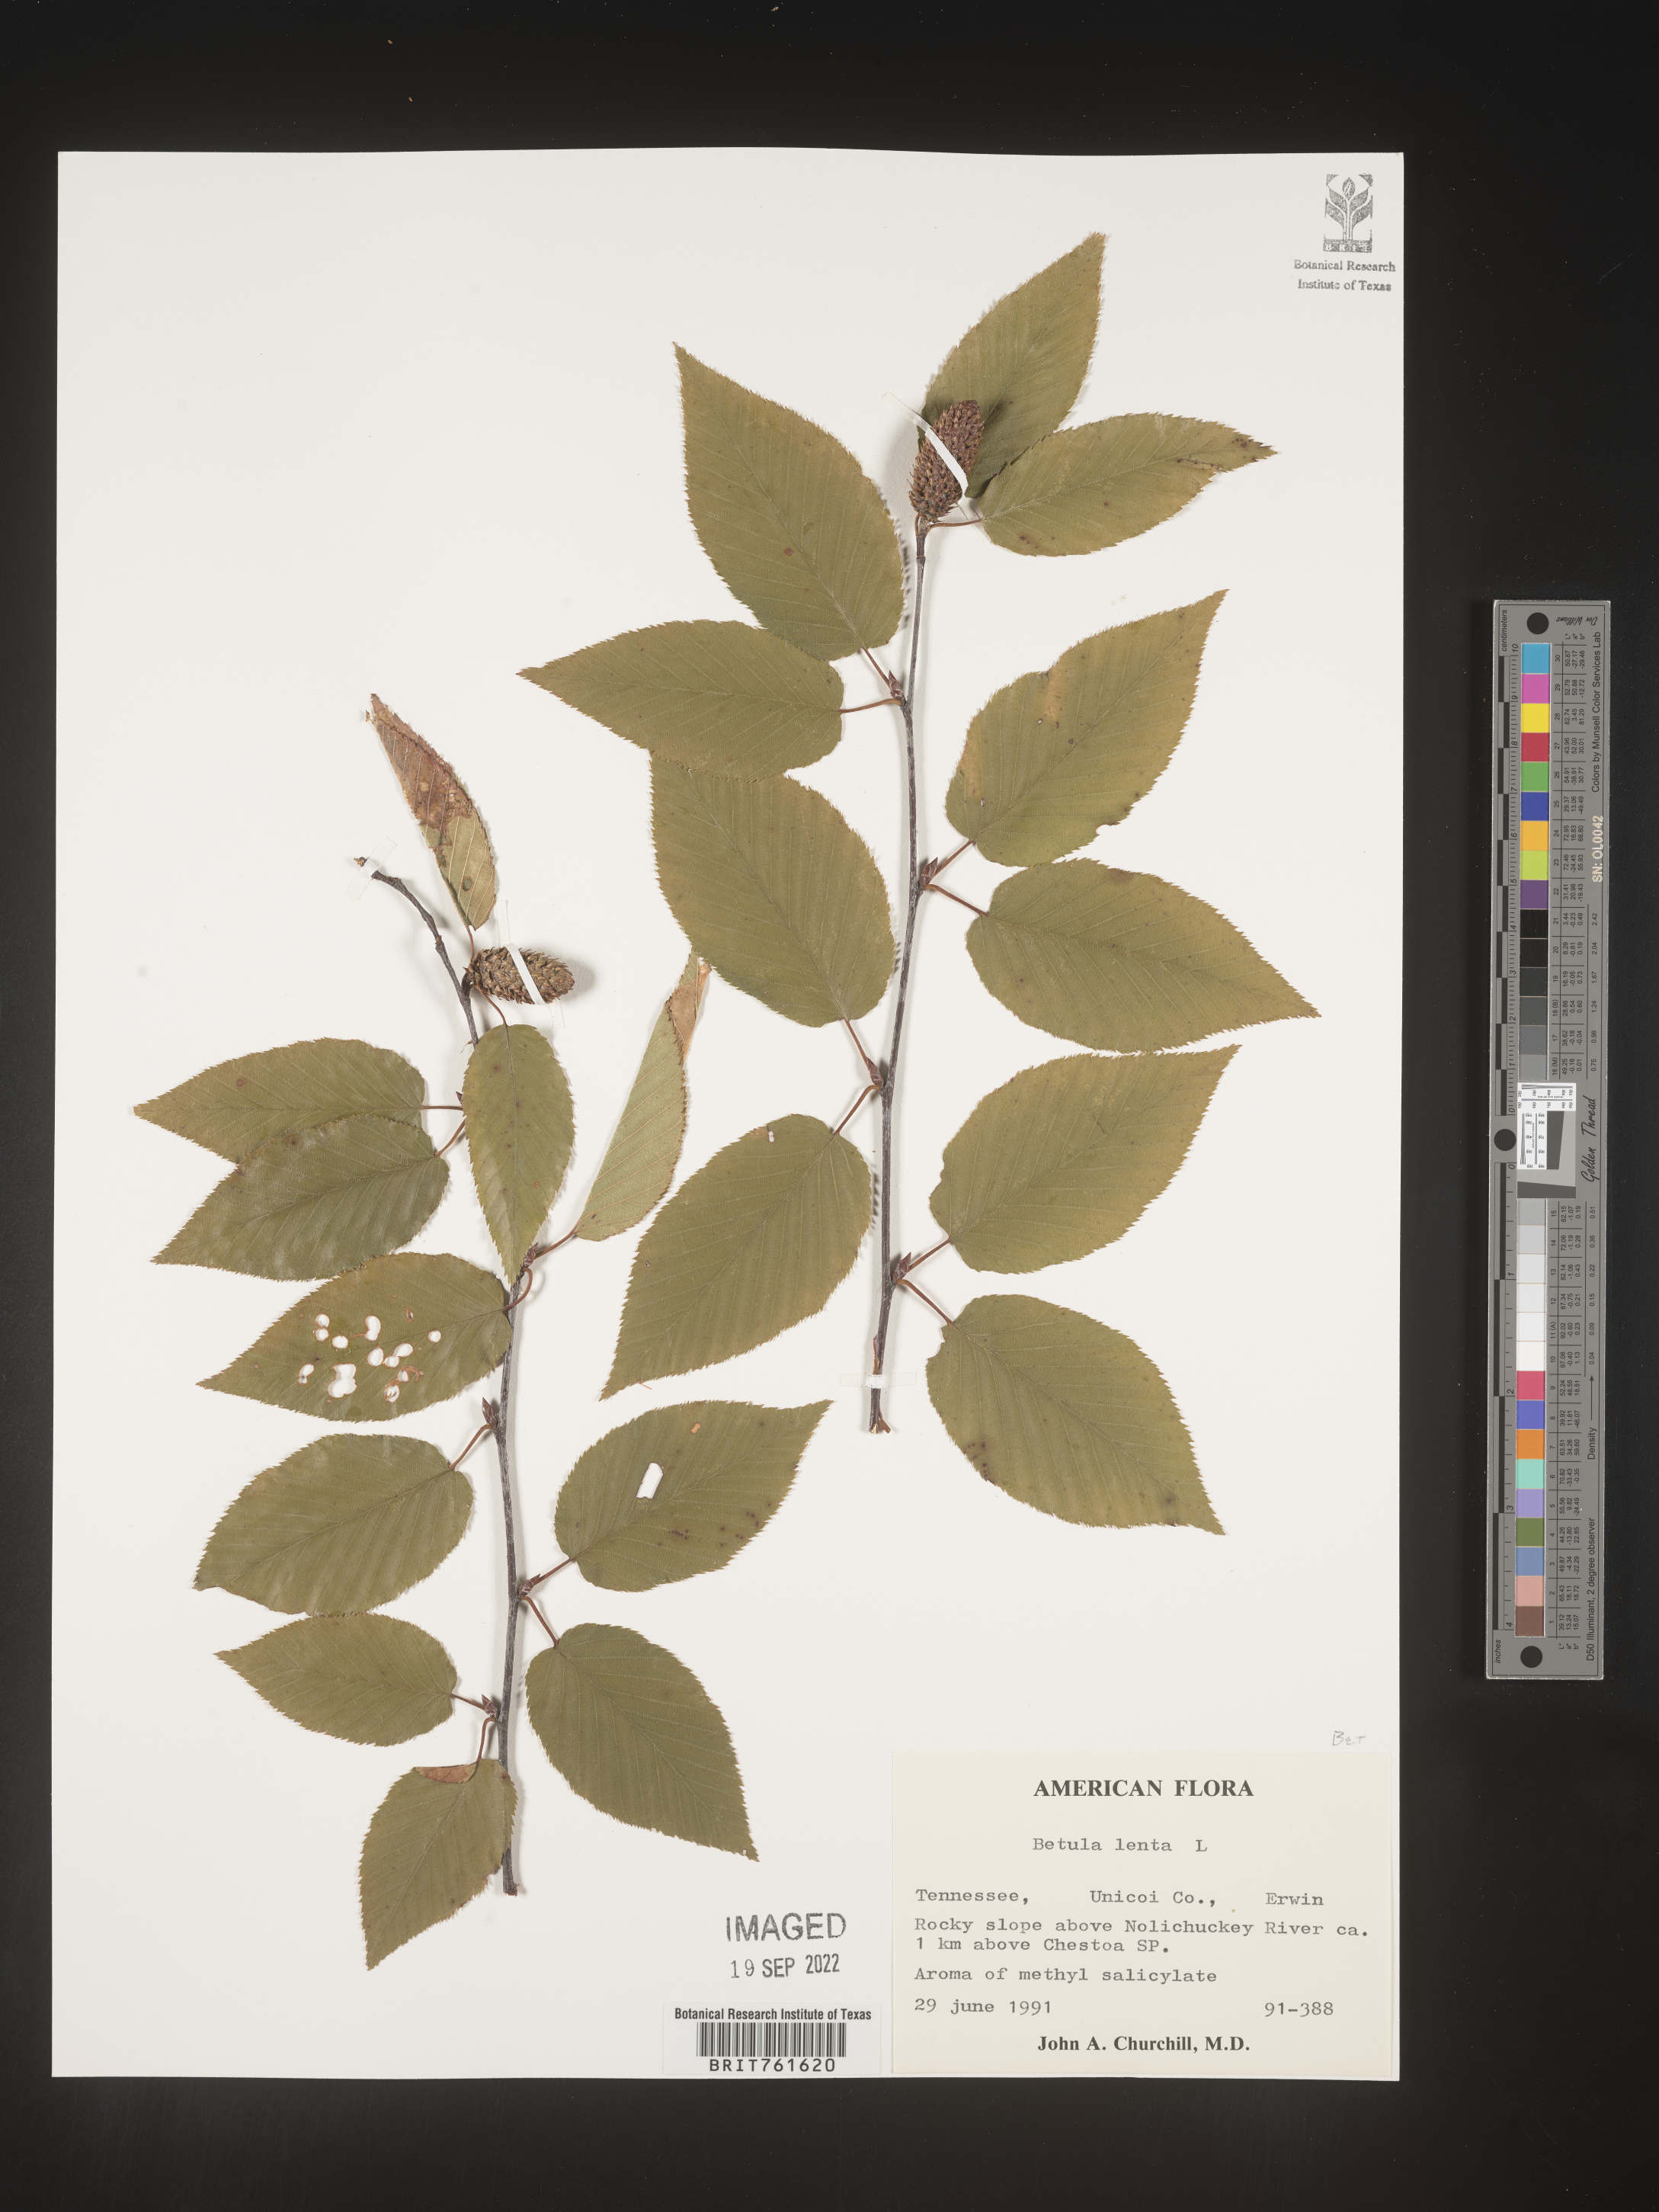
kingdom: Plantae
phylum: Tracheophyta
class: Magnoliopsida
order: Fagales
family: Betulaceae
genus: Betula
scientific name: Betula lenta
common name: Black birch
